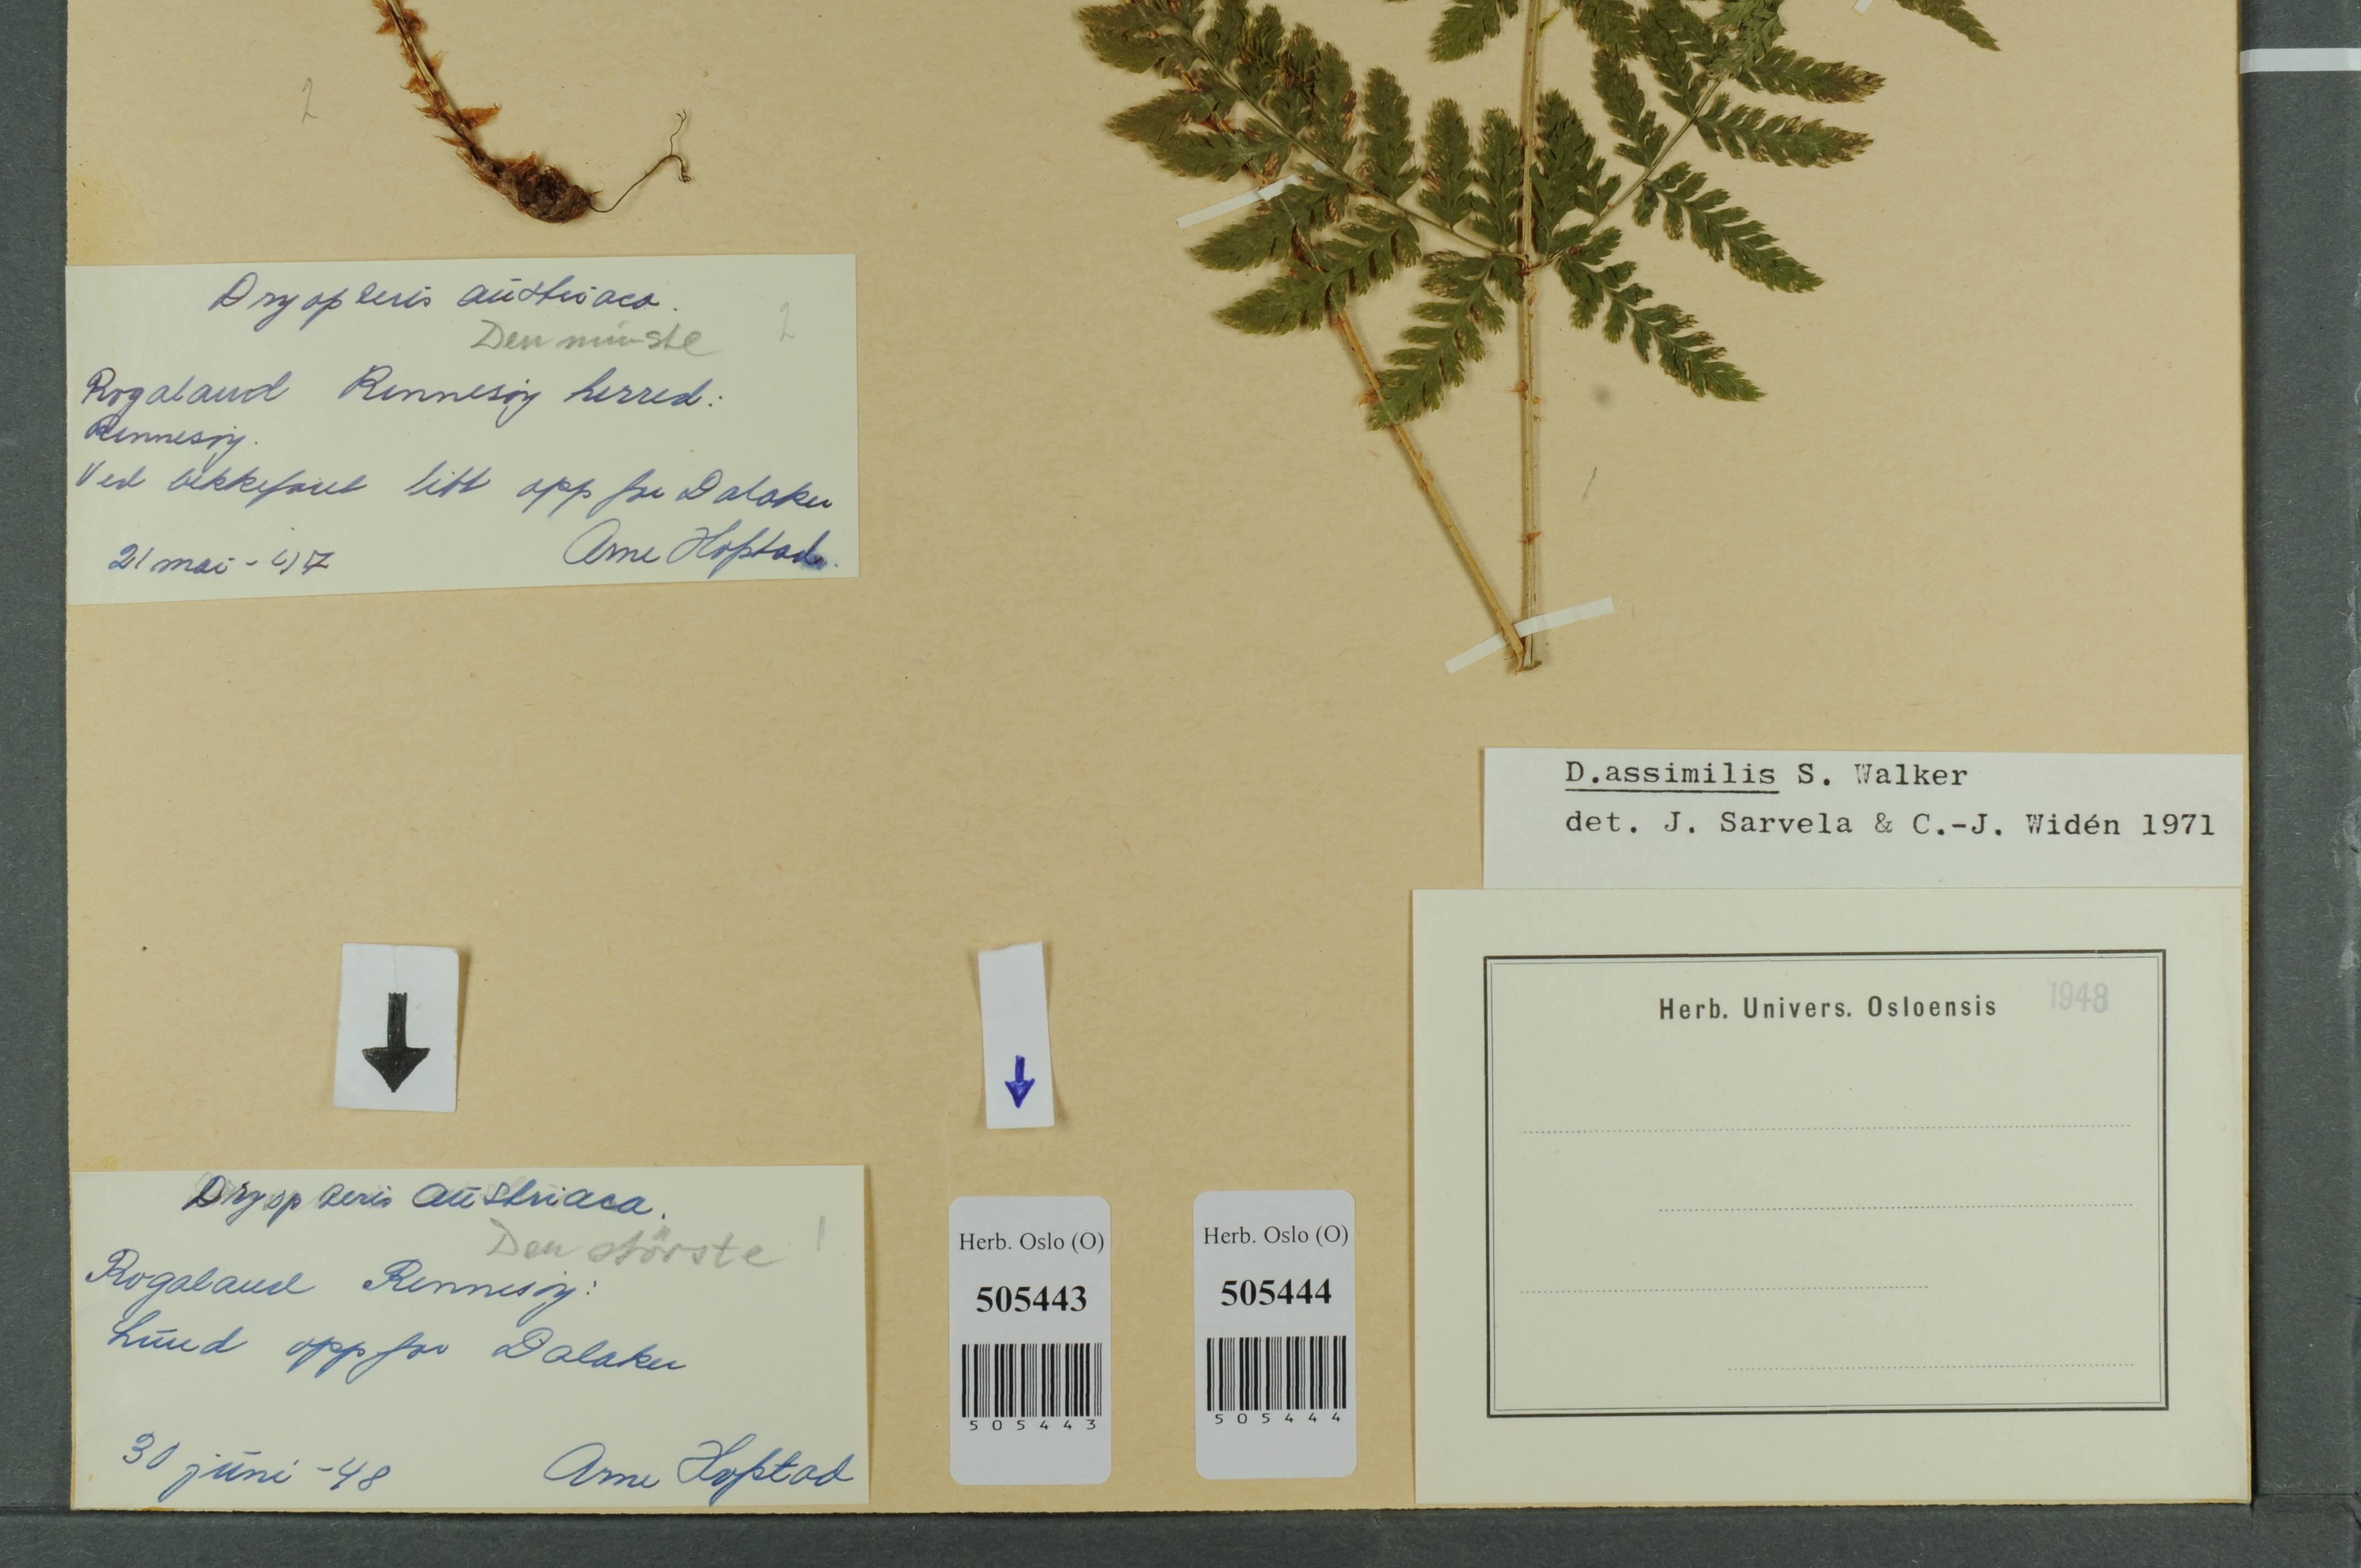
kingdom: Plantae
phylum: Tracheophyta
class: Polypodiopsida
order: Polypodiales
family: Dryopteridaceae
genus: Dryopteris
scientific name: Dryopteris expansa
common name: Northern buckler fern
